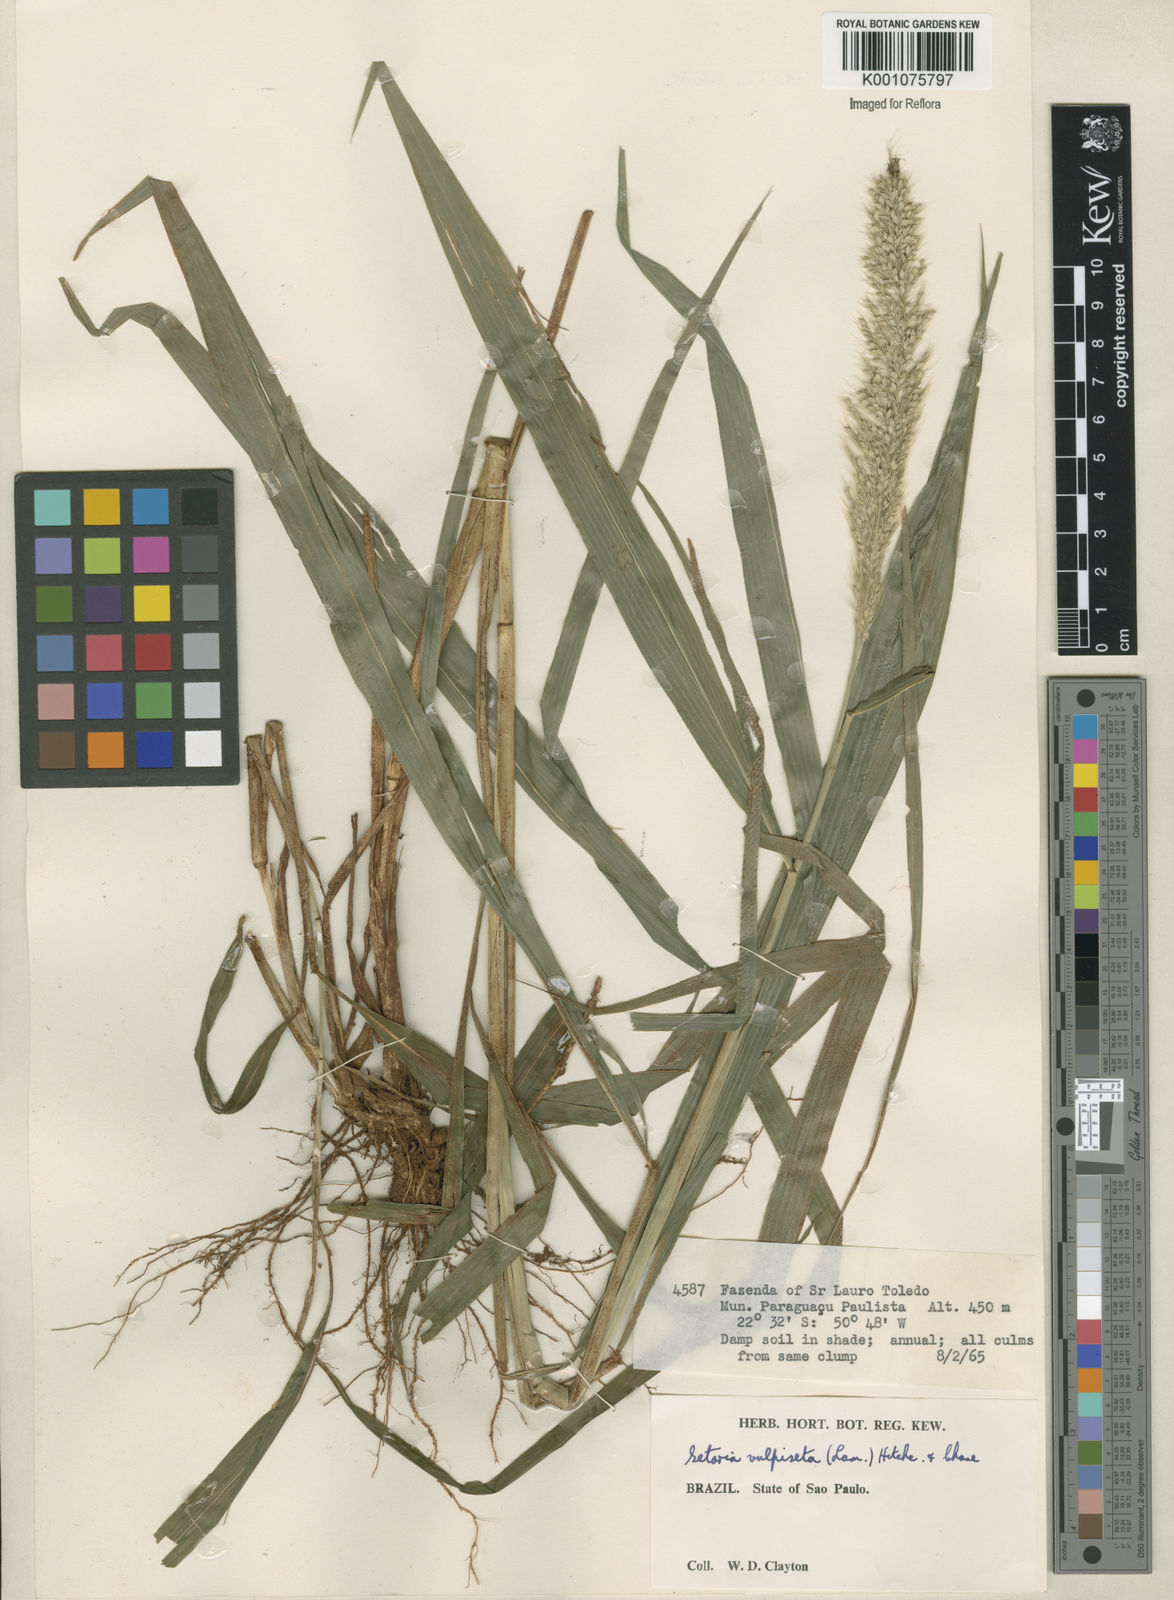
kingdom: Plantae
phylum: Tracheophyta
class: Liliopsida
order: Poales
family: Poaceae
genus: Setaria
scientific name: Setaria vulpiseta
